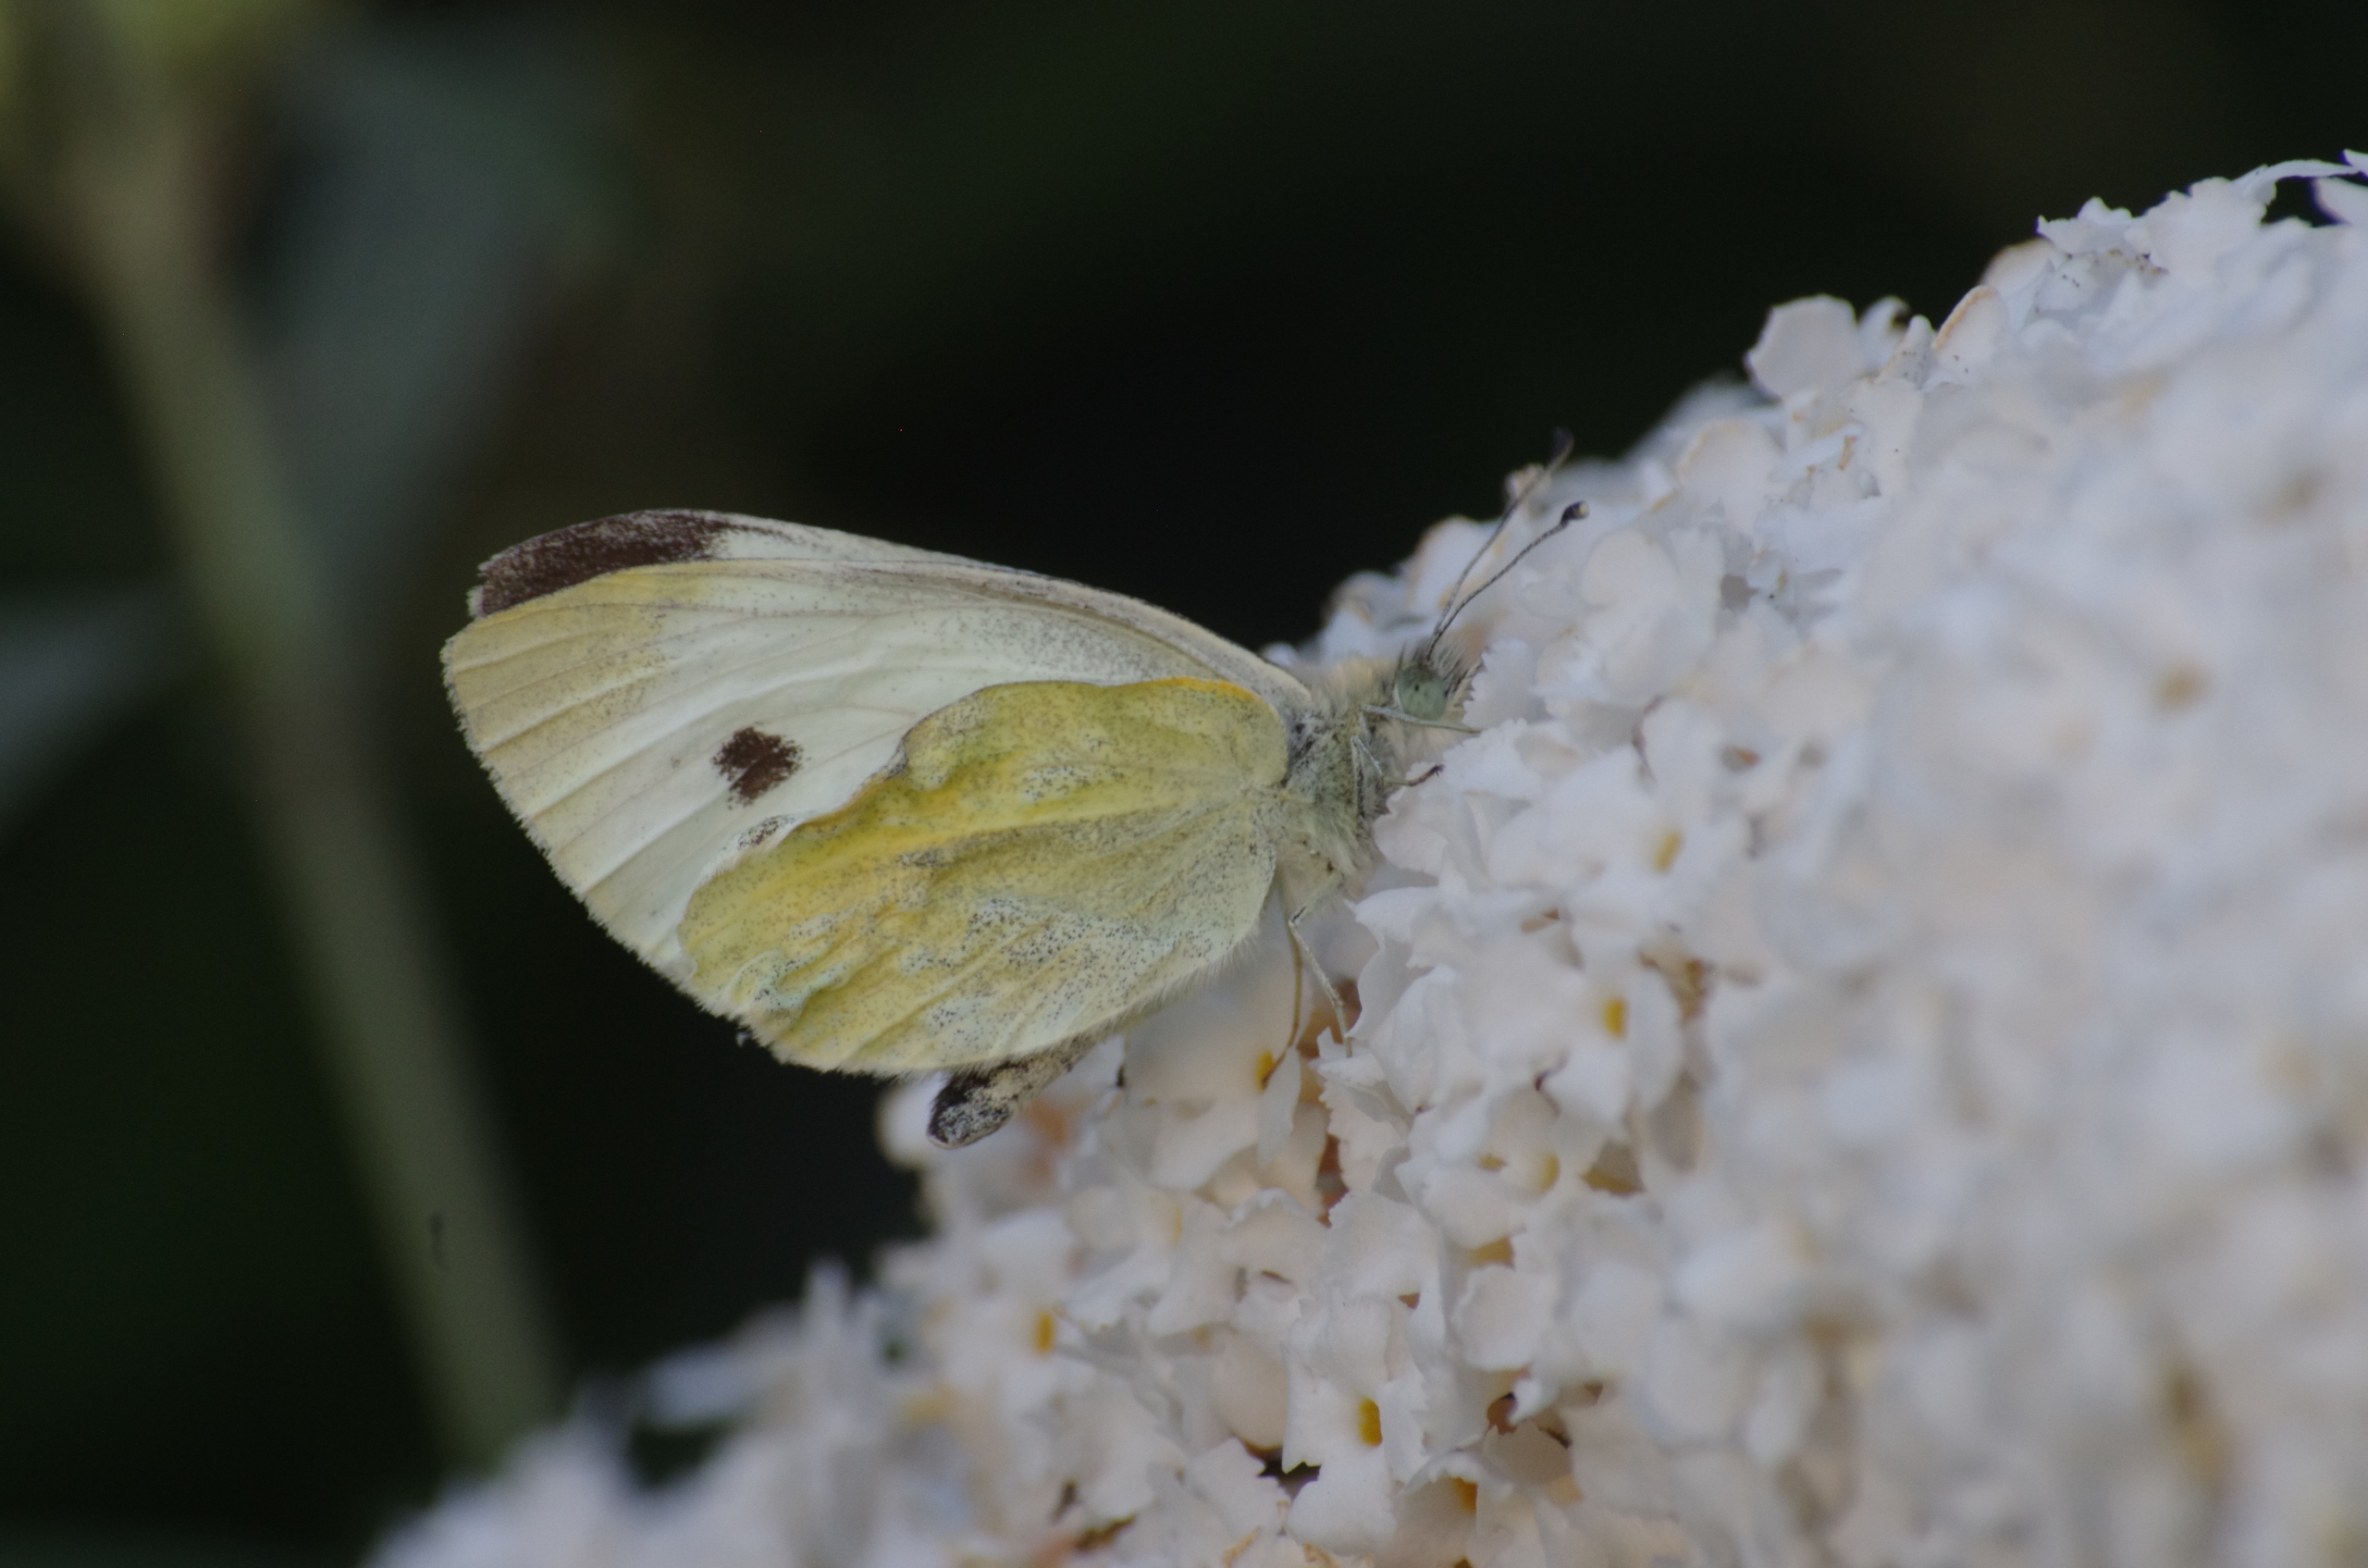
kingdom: Animalia
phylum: Arthropoda
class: Insecta
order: Lepidoptera
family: Pieridae
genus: Pieris
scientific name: Pieris rapae
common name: Lille kålsommerfugl
